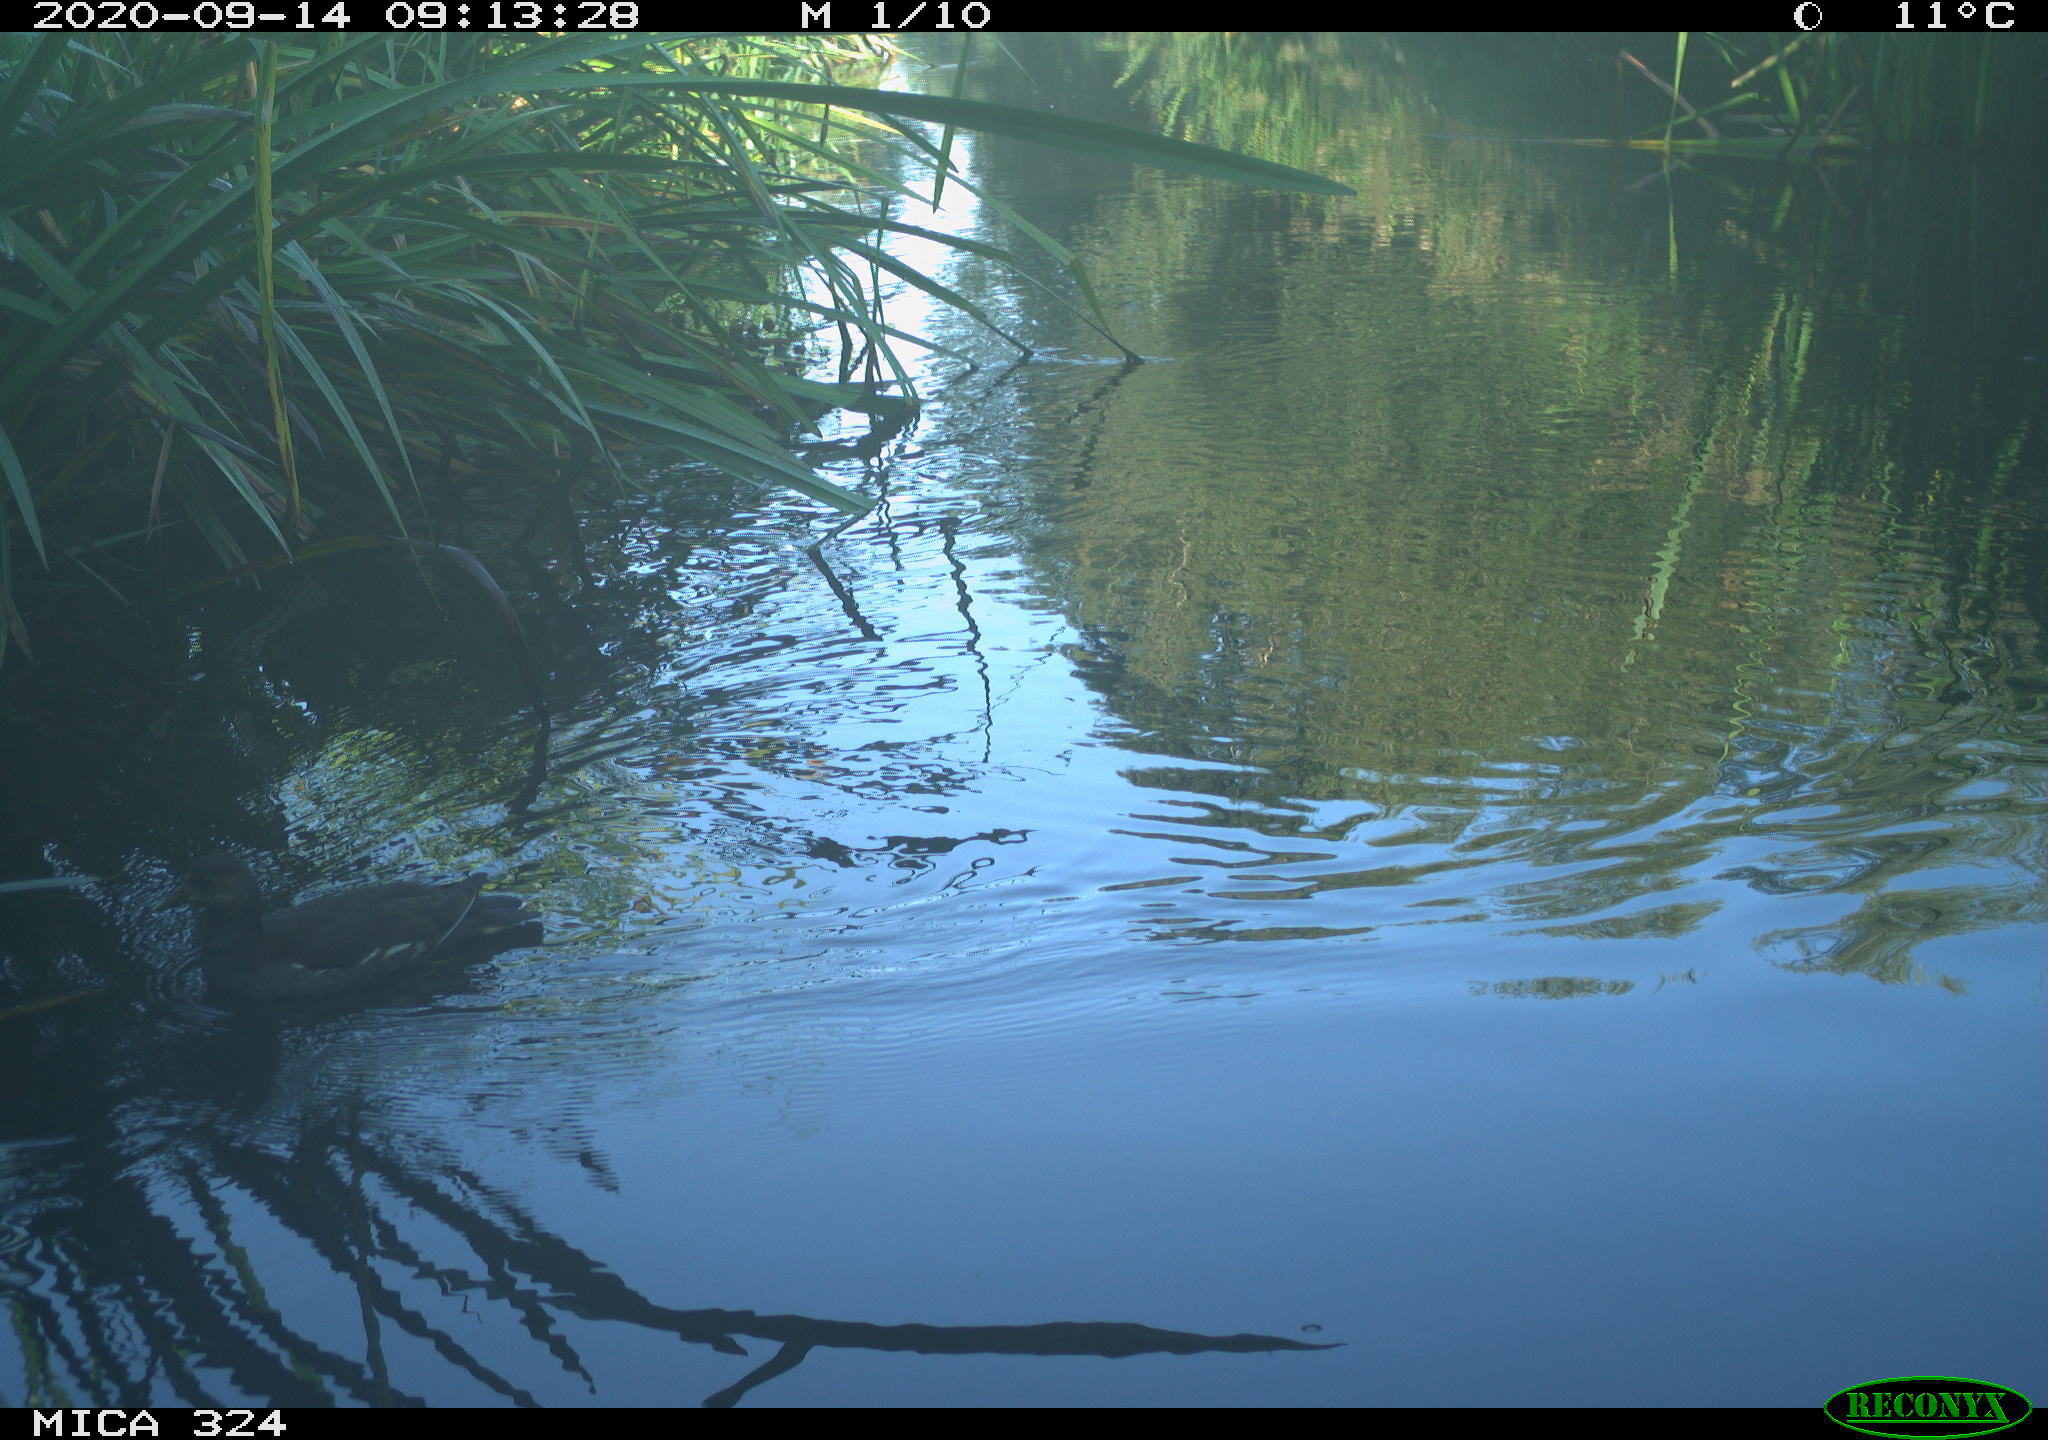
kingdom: Animalia
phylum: Chordata
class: Aves
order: Gruiformes
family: Rallidae
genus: Gallinula
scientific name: Gallinula chloropus
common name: Common moorhen
